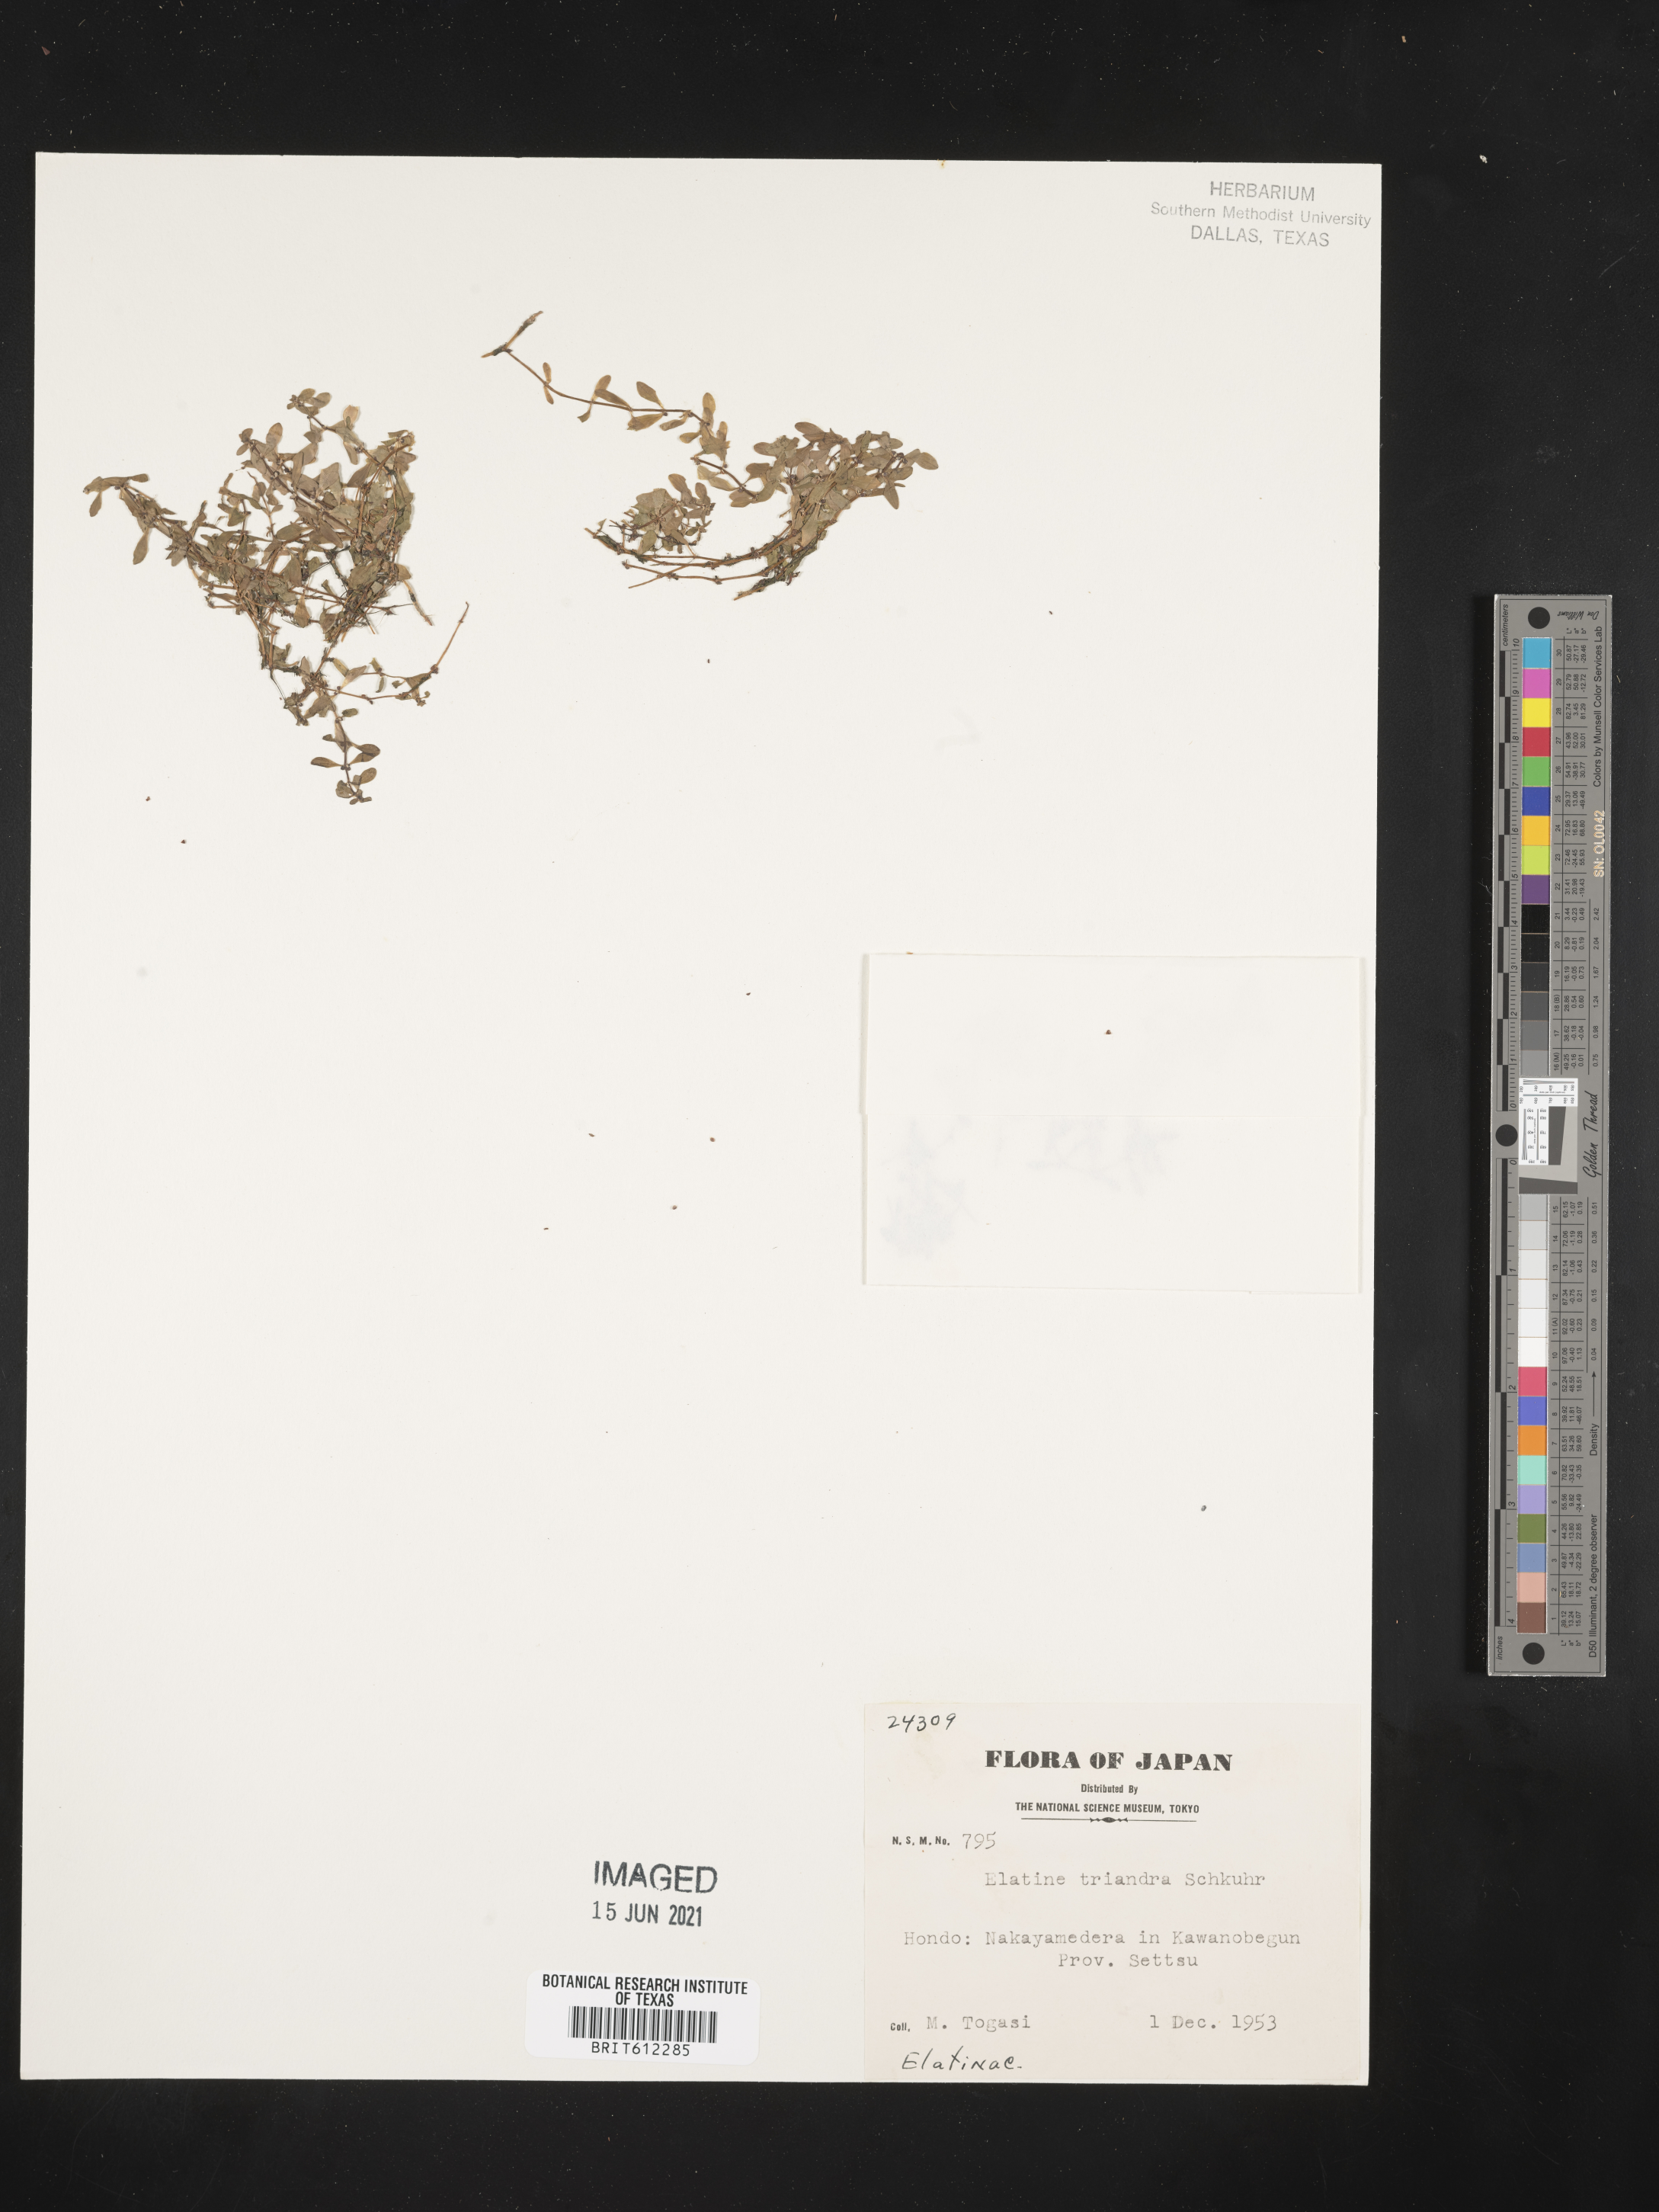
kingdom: Plantae
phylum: Tracheophyta
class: Magnoliopsida
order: Malpighiales
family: Elatinaceae
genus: Elatine
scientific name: Elatine triandra
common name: Three-stamened waterwort
